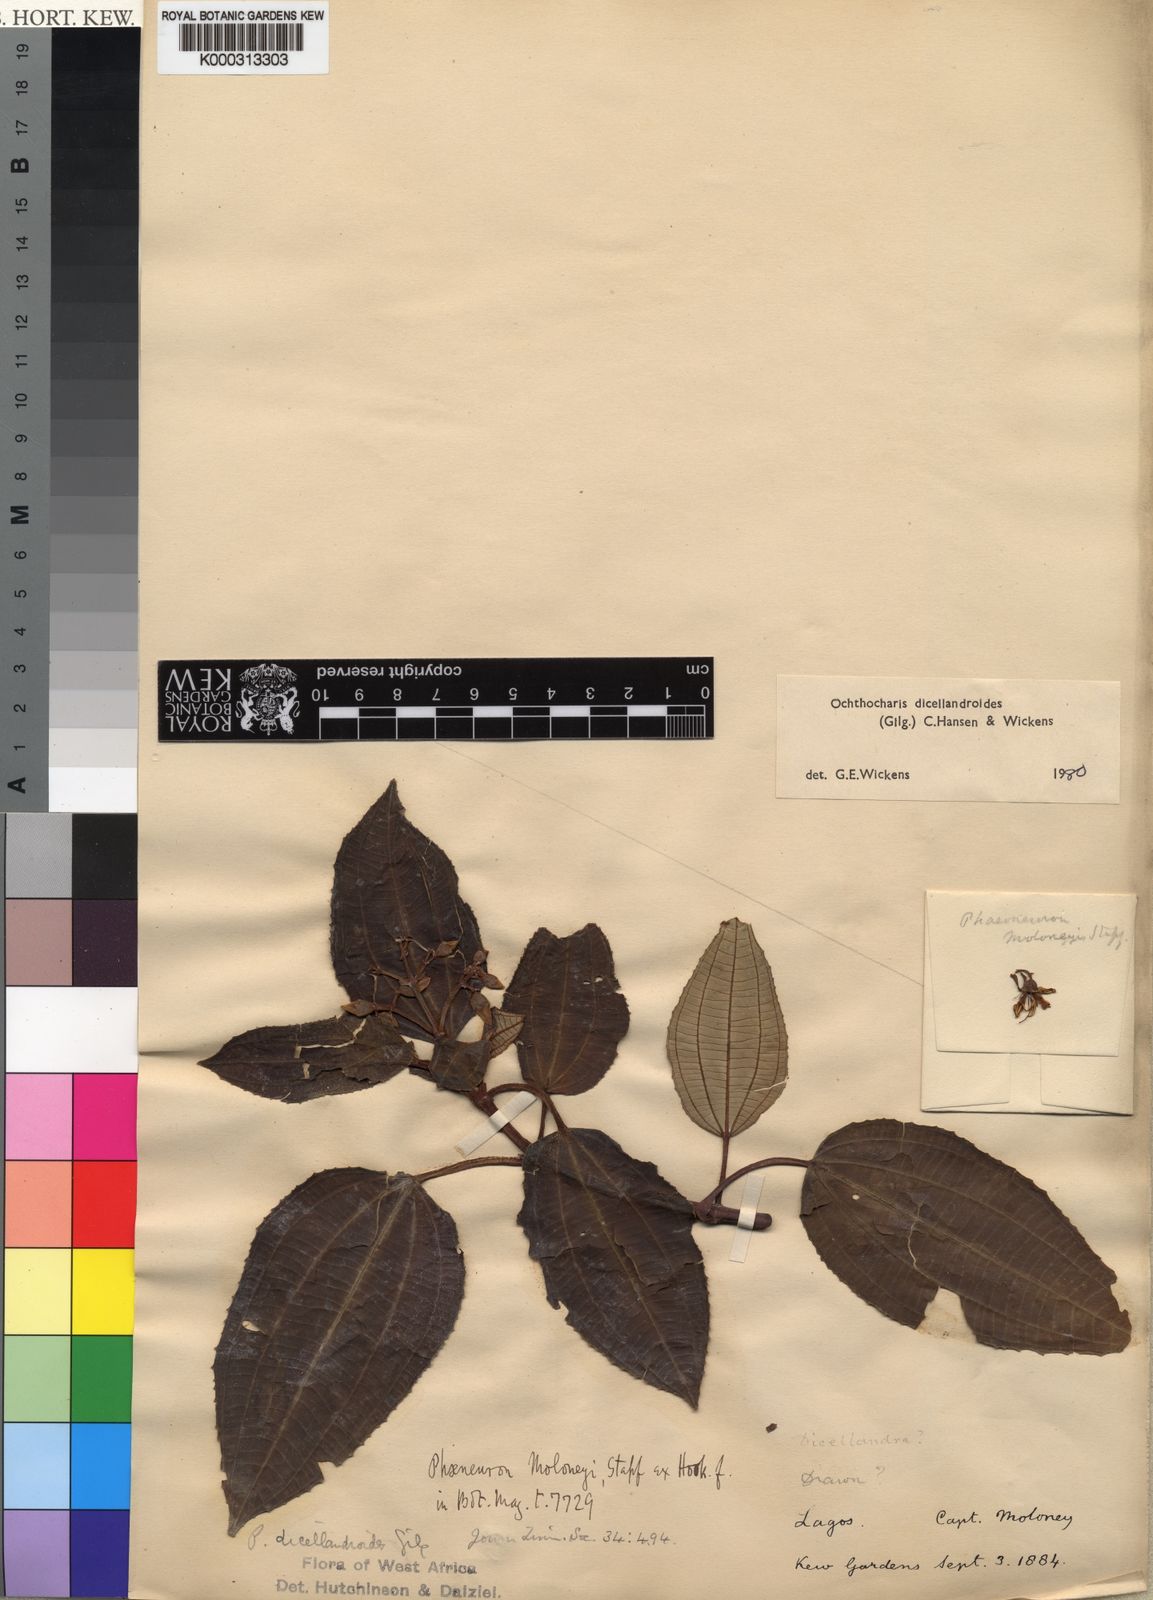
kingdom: Plantae
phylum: Tracheophyta
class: Magnoliopsida
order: Myrtales
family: Melastomataceae
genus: Ochthocharis
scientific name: Ochthocharis dicellandroides
